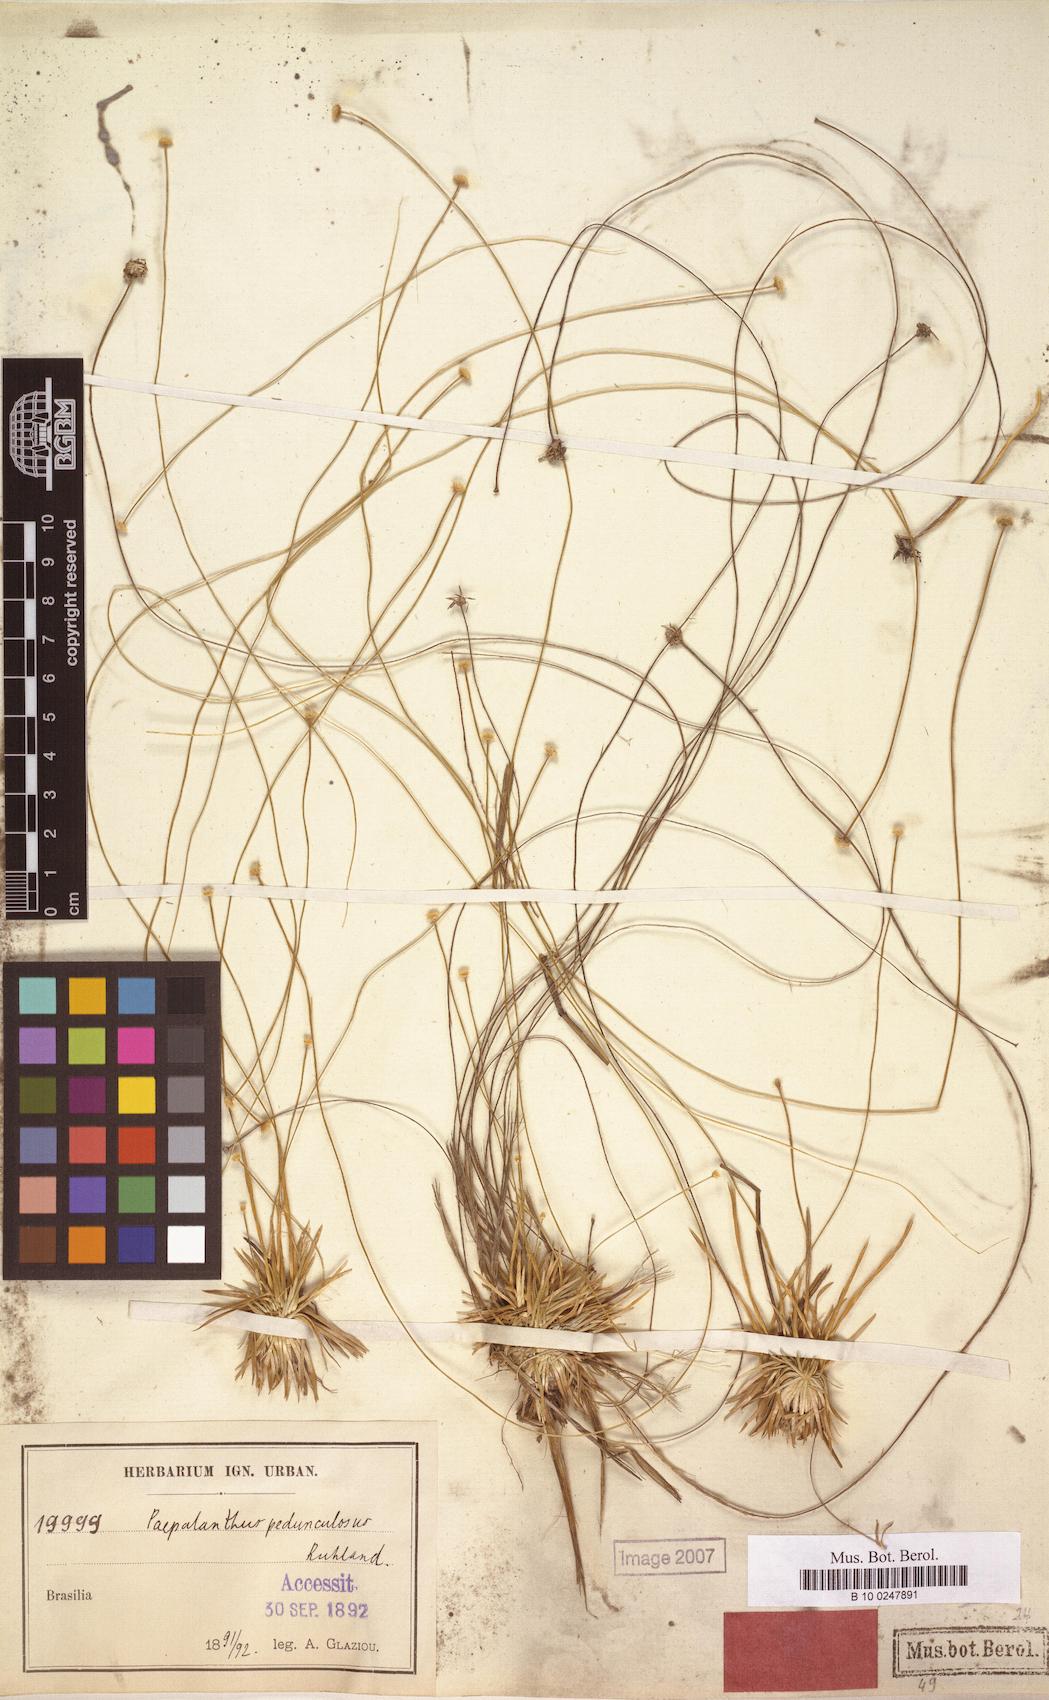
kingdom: Plantae
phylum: Tracheophyta
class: Liliopsida
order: Poales
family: Eriocaulaceae
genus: Leiothrix
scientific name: Leiothrix flagellaris
